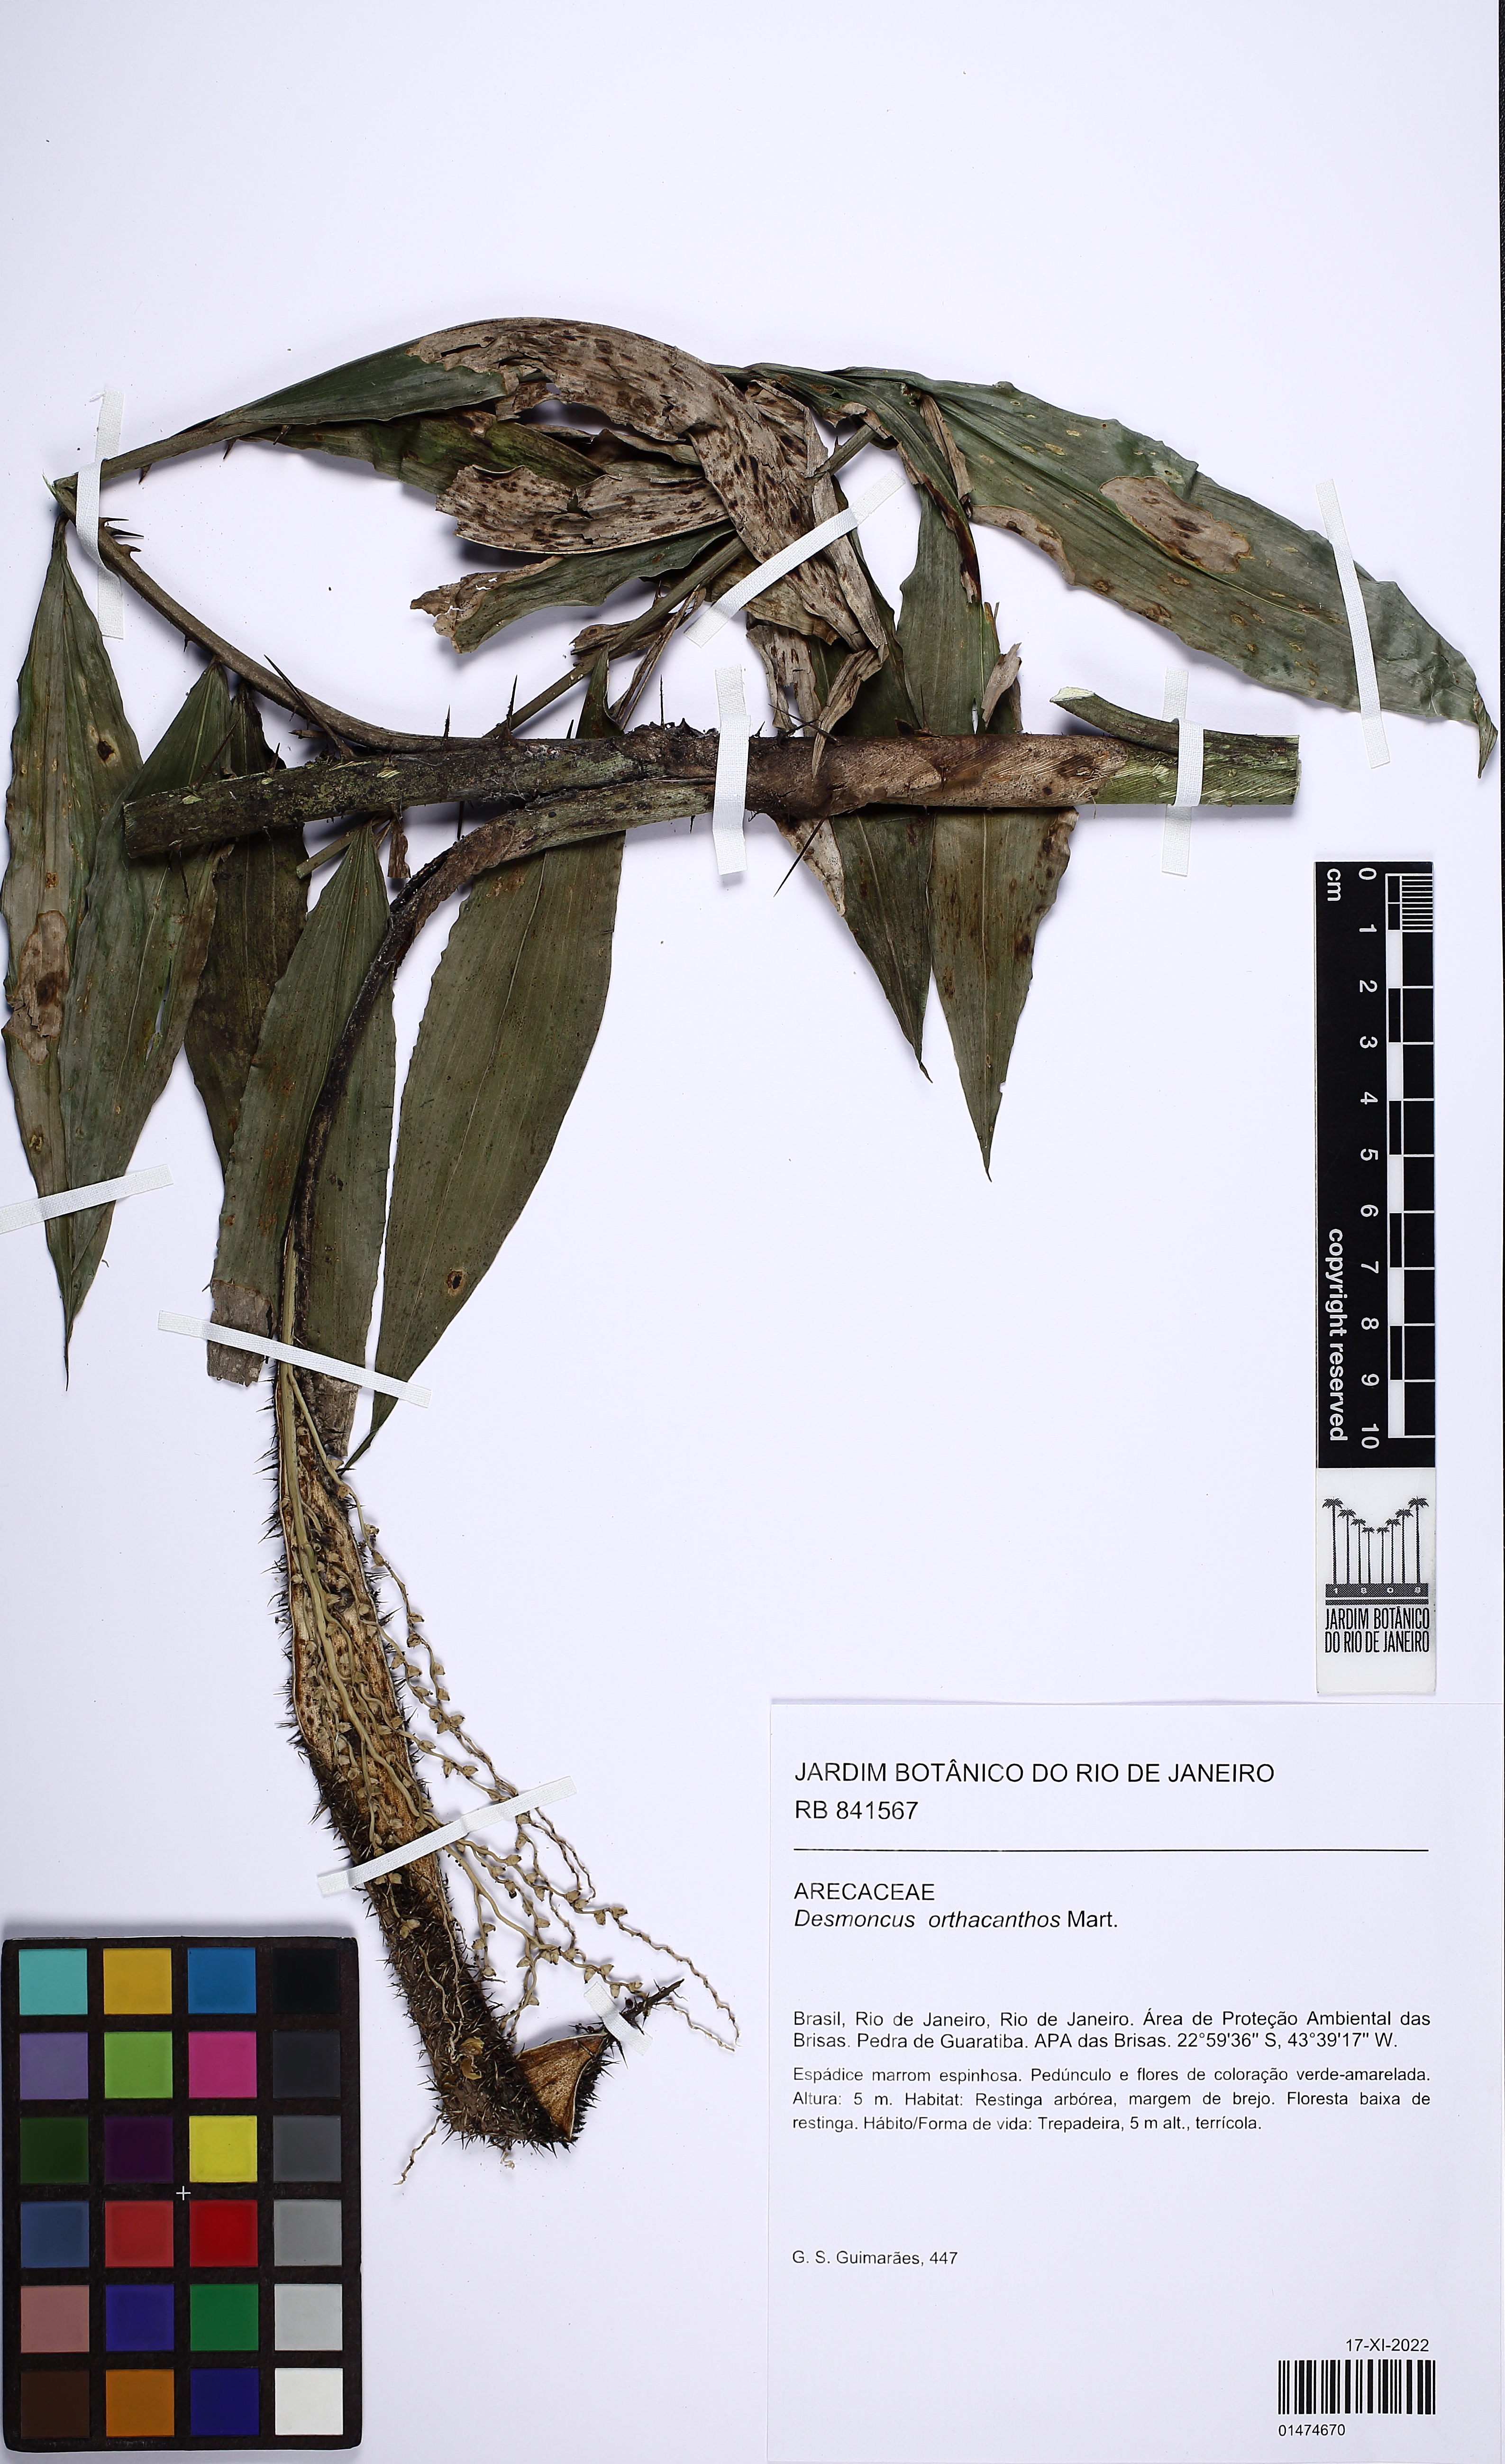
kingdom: Plantae
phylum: Tracheophyta
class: Liliopsida
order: Arecales
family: Arecaceae
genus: Desmoncus
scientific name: Desmoncus orthacanthos
